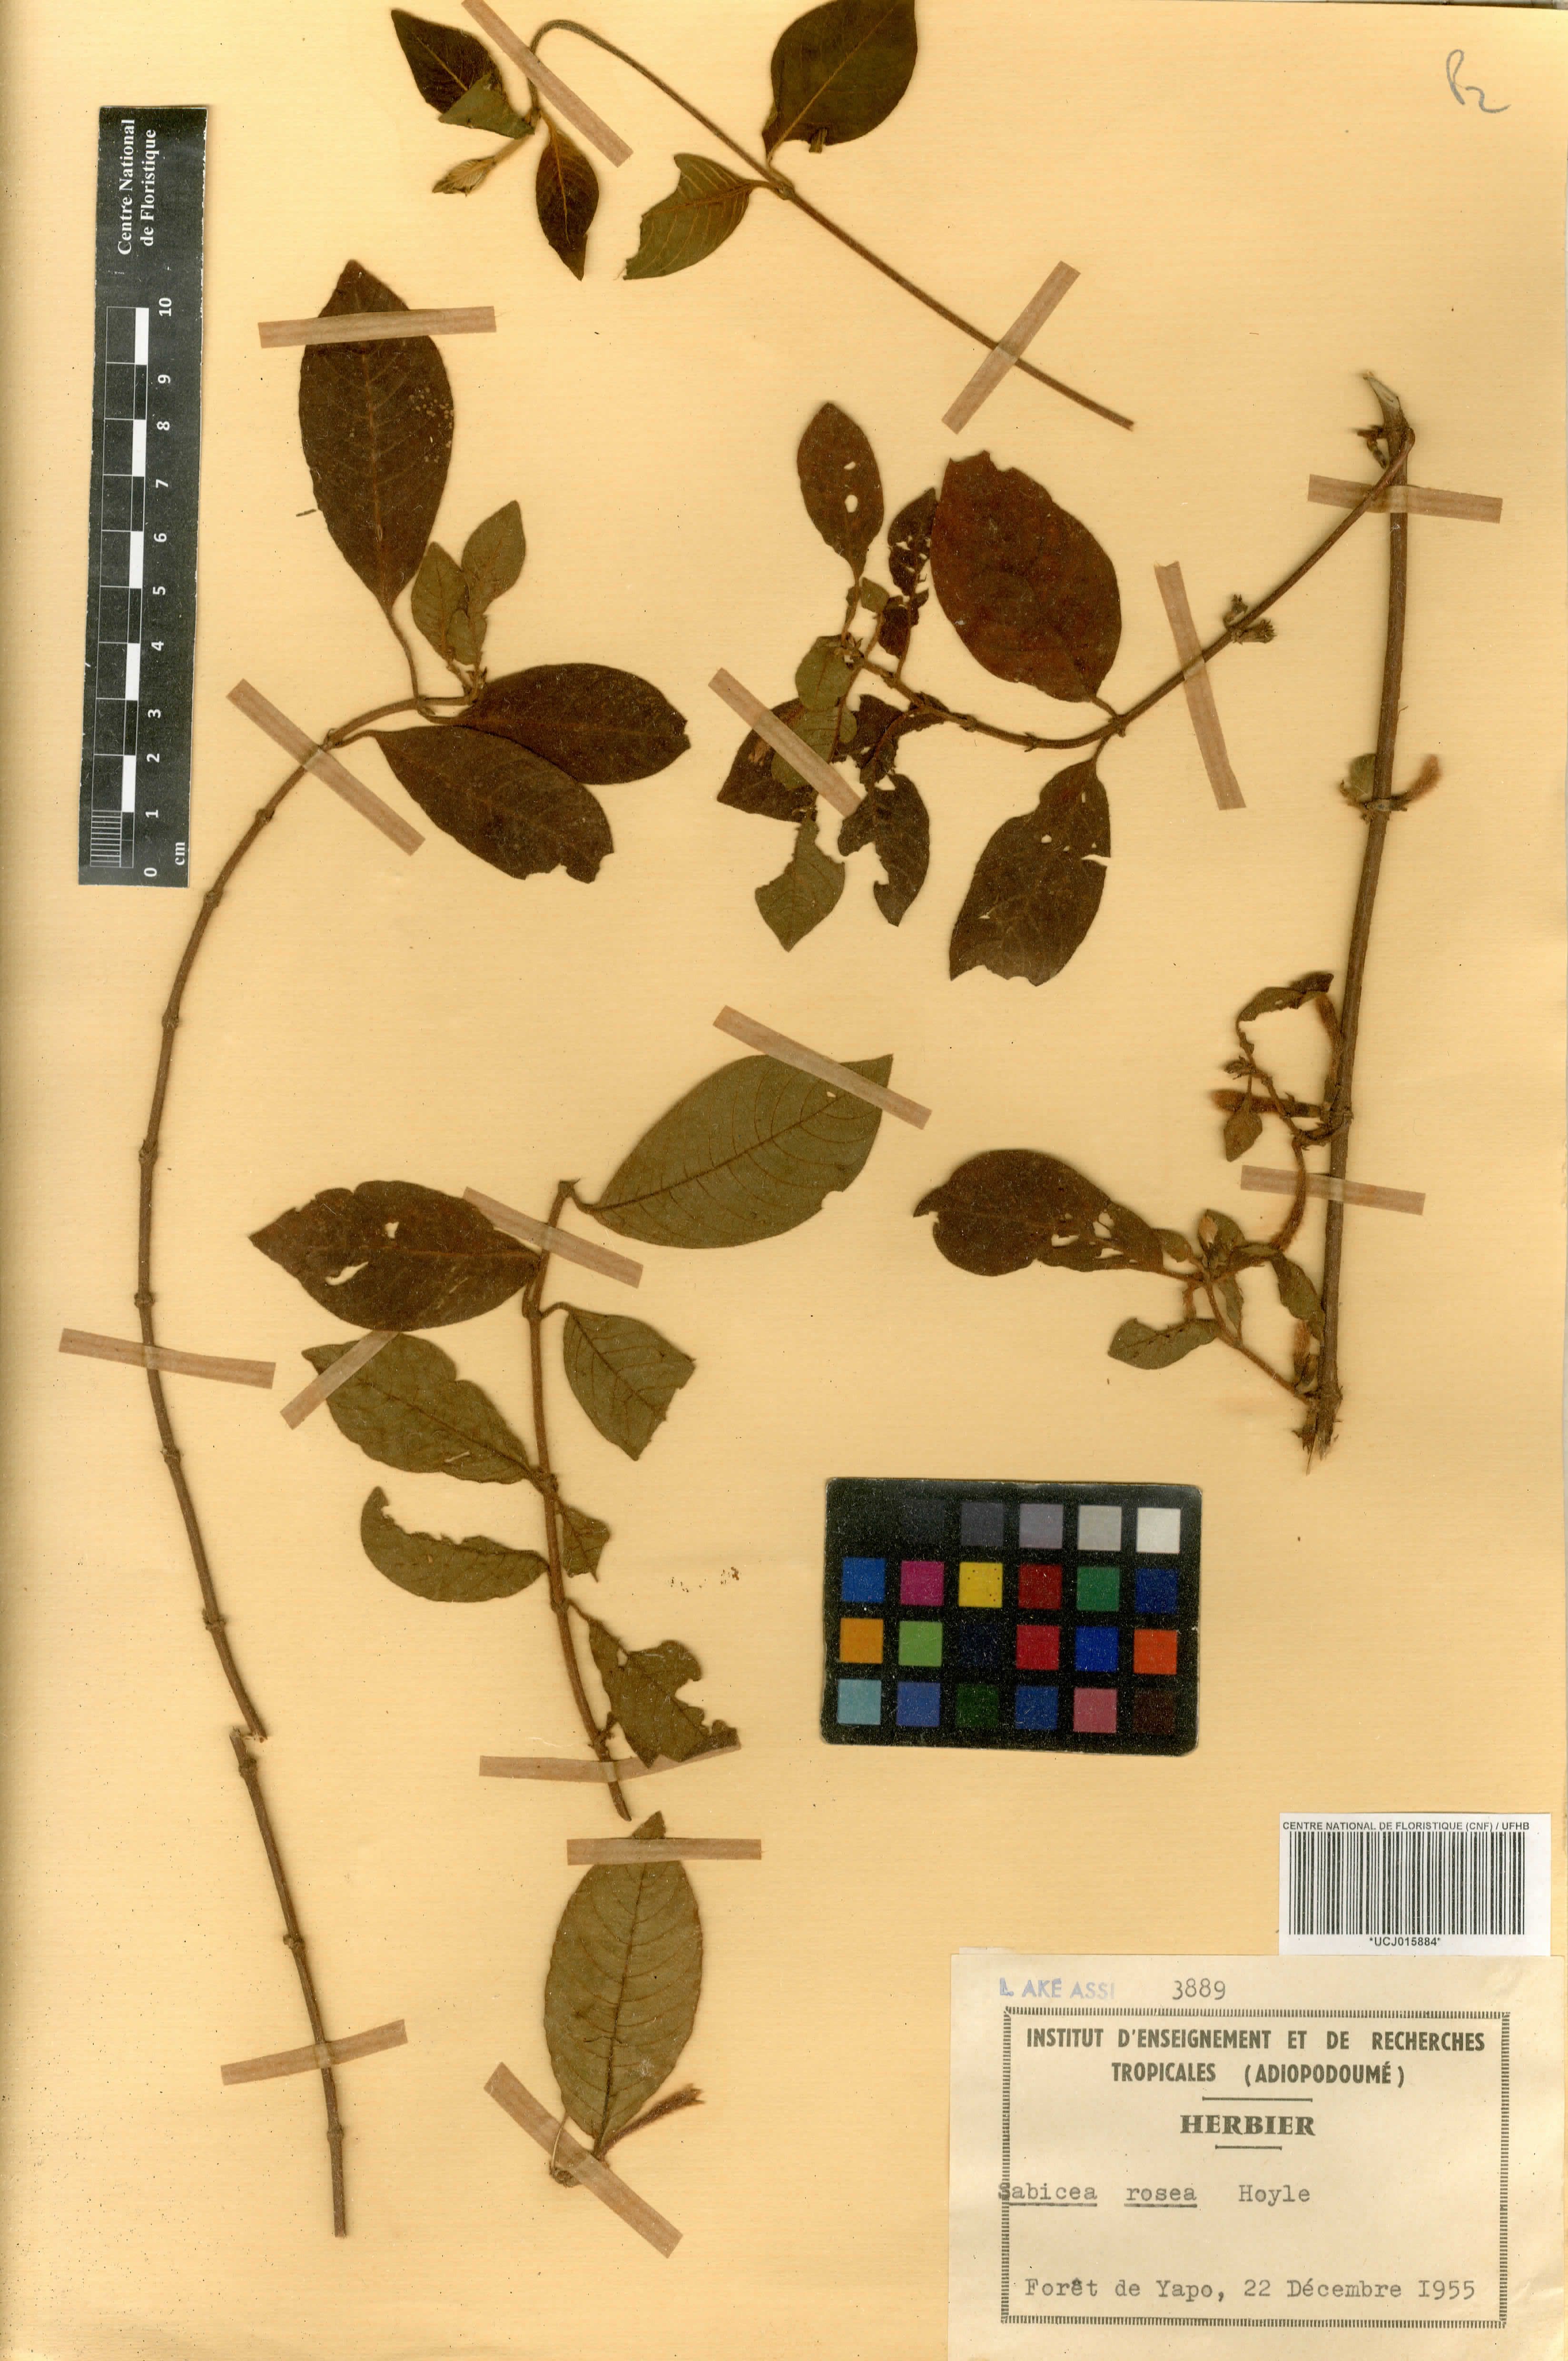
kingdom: Plantae
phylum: Tracheophyta
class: Magnoliopsida
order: Gentianales
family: Rubiaceae
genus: Sabicea
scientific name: Sabicea rosea
